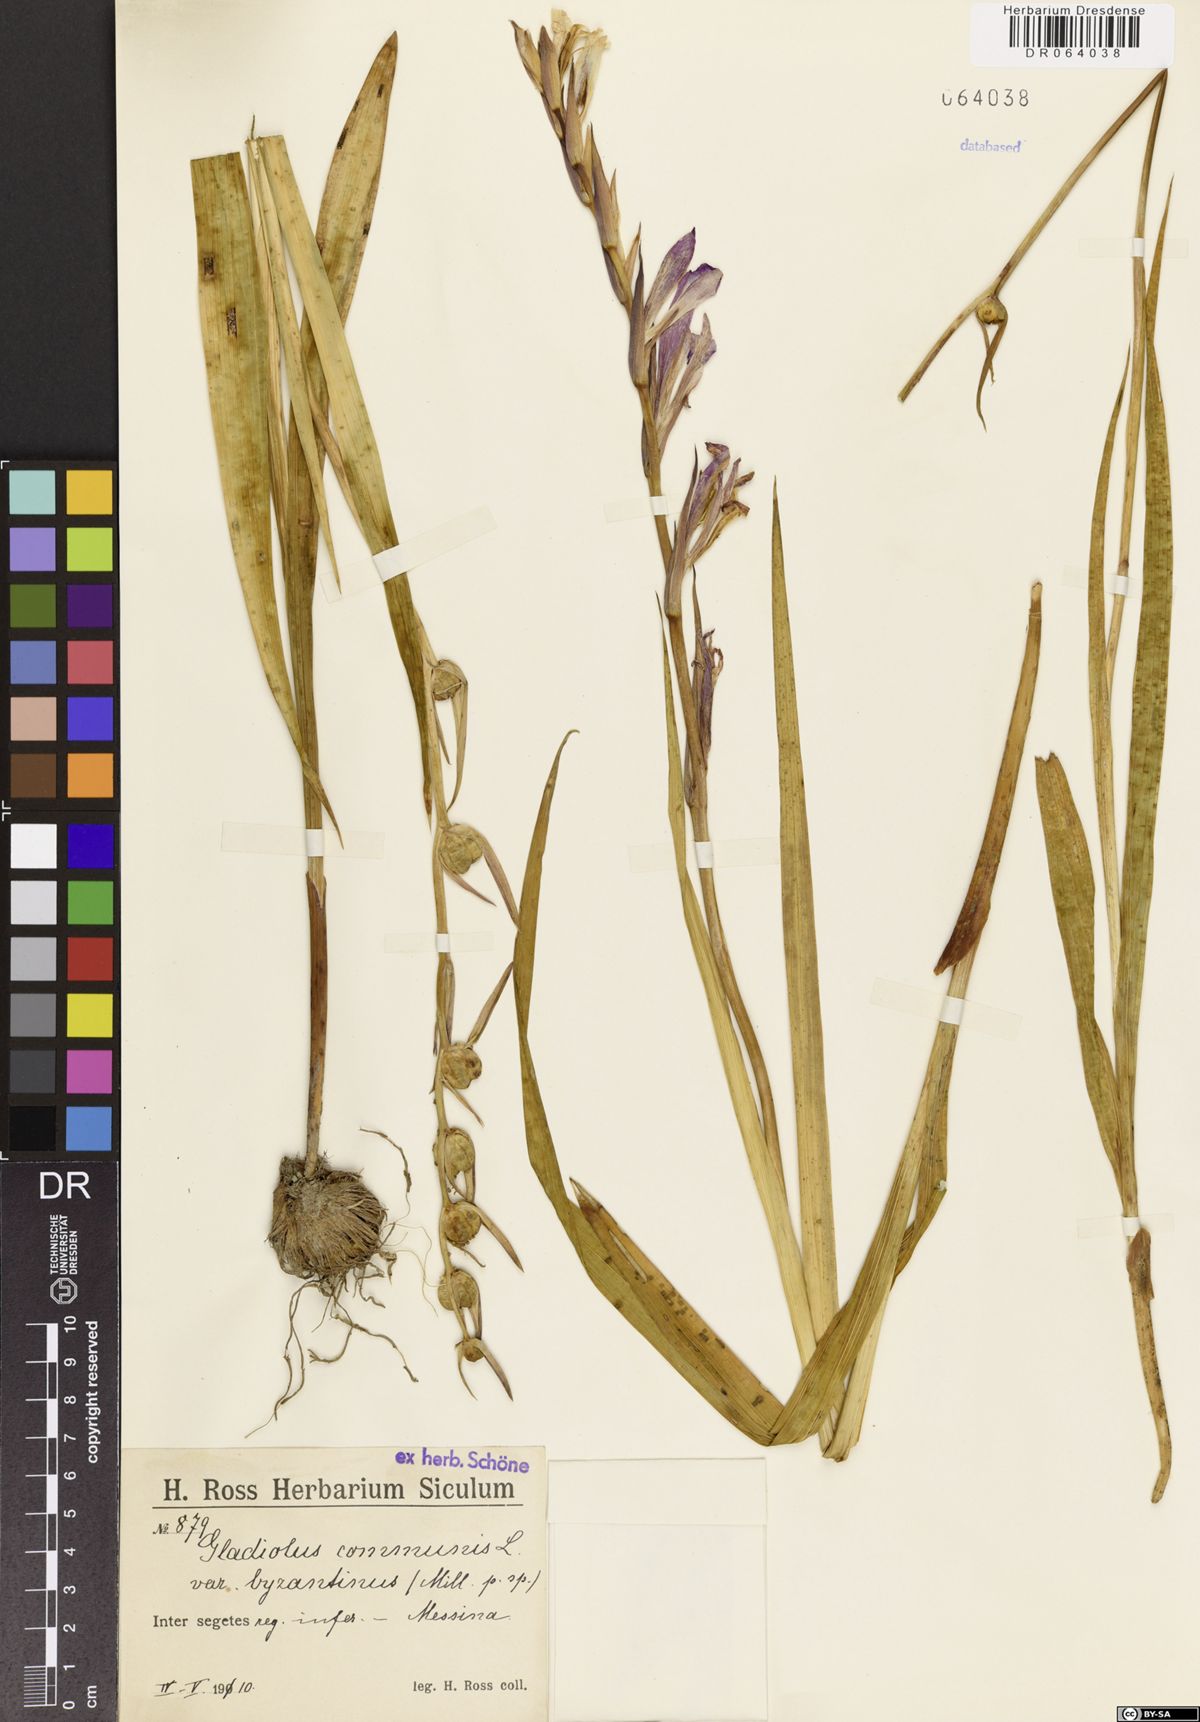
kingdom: Plantae
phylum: Tracheophyta
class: Liliopsida
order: Asparagales
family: Iridaceae
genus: Gladiolus
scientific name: Gladiolus communis
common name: Eastern gladiolus
